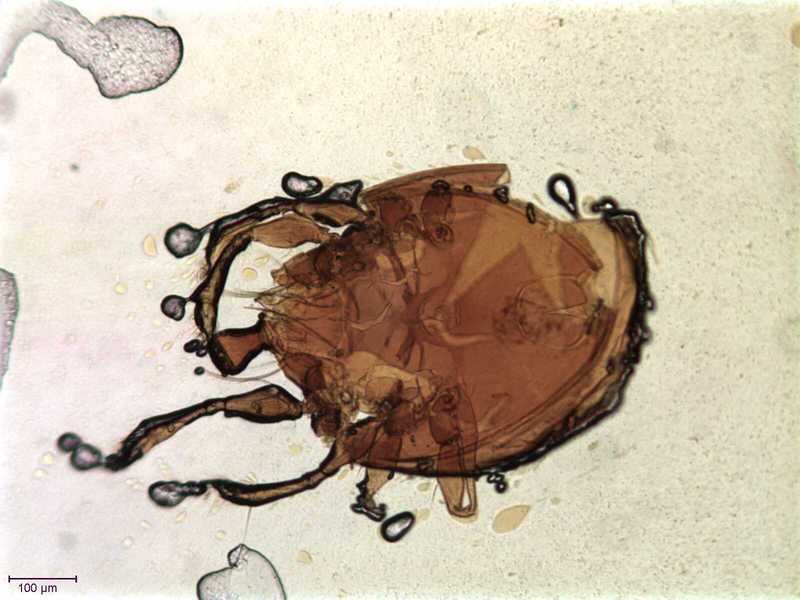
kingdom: Animalia
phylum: Arthropoda
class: Arachnida
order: Sarcoptiformes
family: Hemileiidae
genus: Nasozetes
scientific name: Nasozetes sumatrensis
